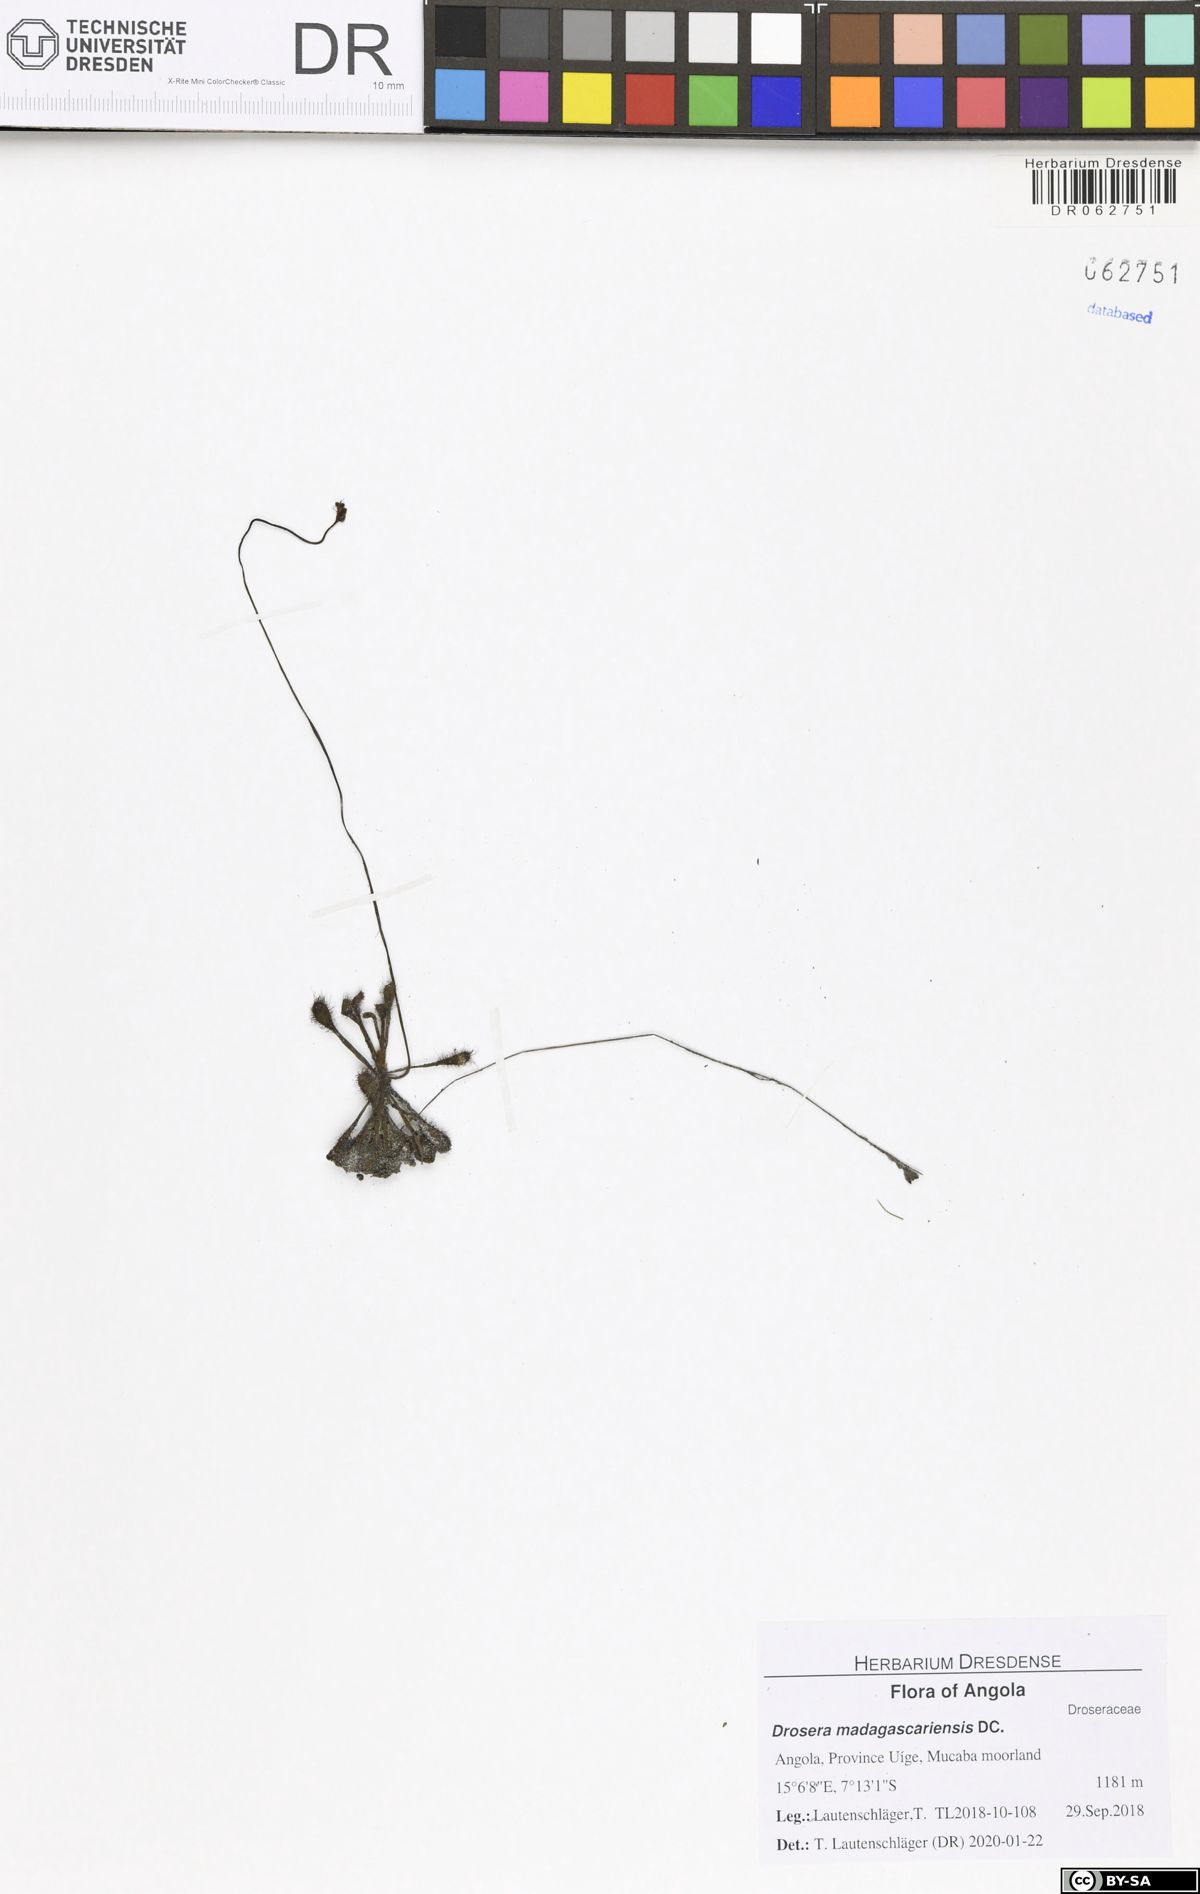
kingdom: Plantae
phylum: Tracheophyta
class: Magnoliopsida
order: Caryophyllales
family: Droseraceae
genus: Drosera
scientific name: Drosera madagascariensis
